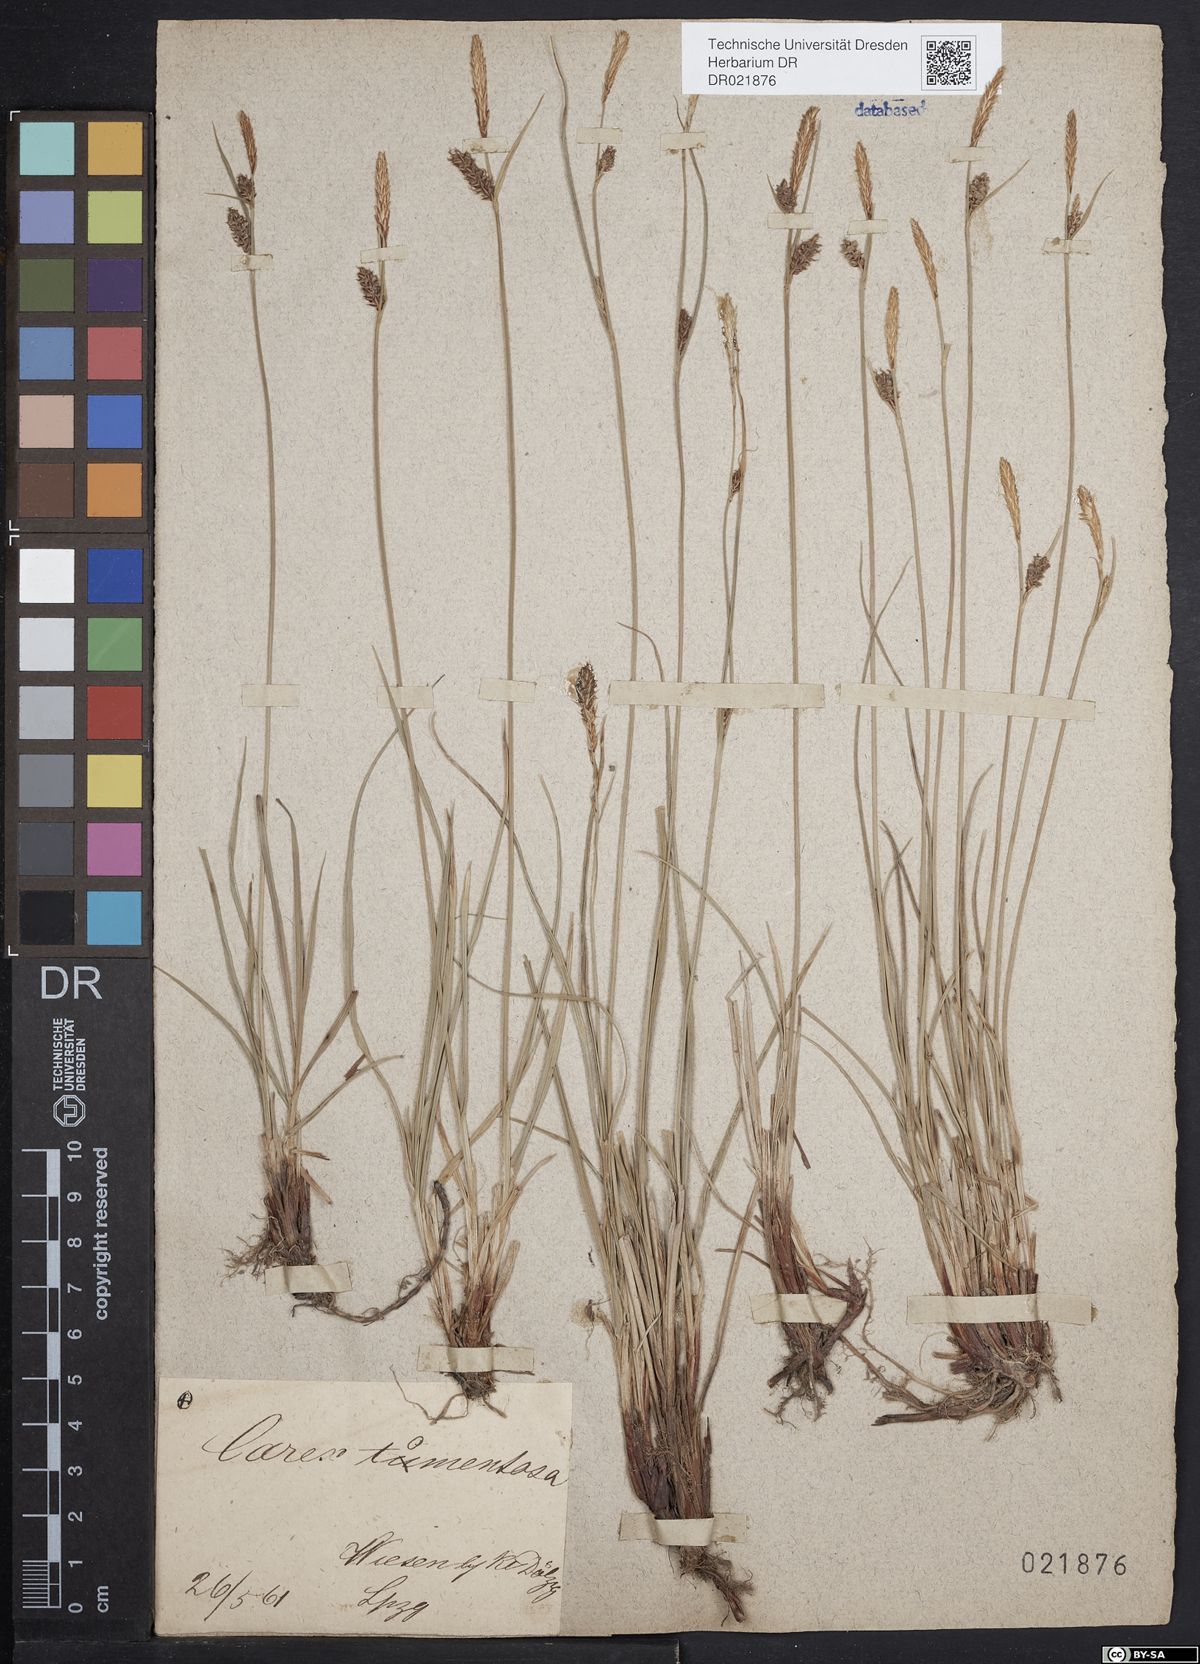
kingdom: Plantae
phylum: Tracheophyta
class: Liliopsida
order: Poales
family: Cyperaceae
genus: Carex
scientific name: Carex tomentosa
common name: Downy-fruited sedge
